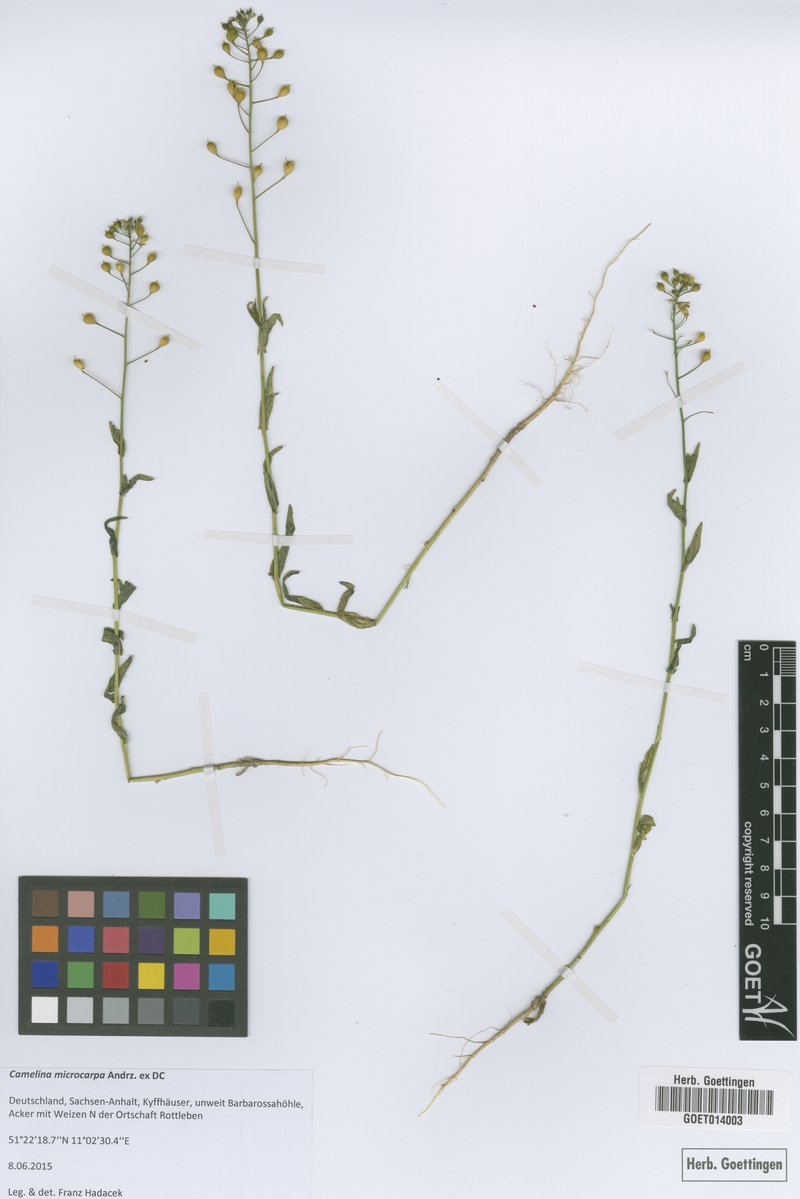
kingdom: Plantae
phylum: Tracheophyta
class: Magnoliopsida
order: Brassicales
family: Brassicaceae
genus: Camelina
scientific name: Camelina microcarpa
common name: Lesser gold-of-pleasure
